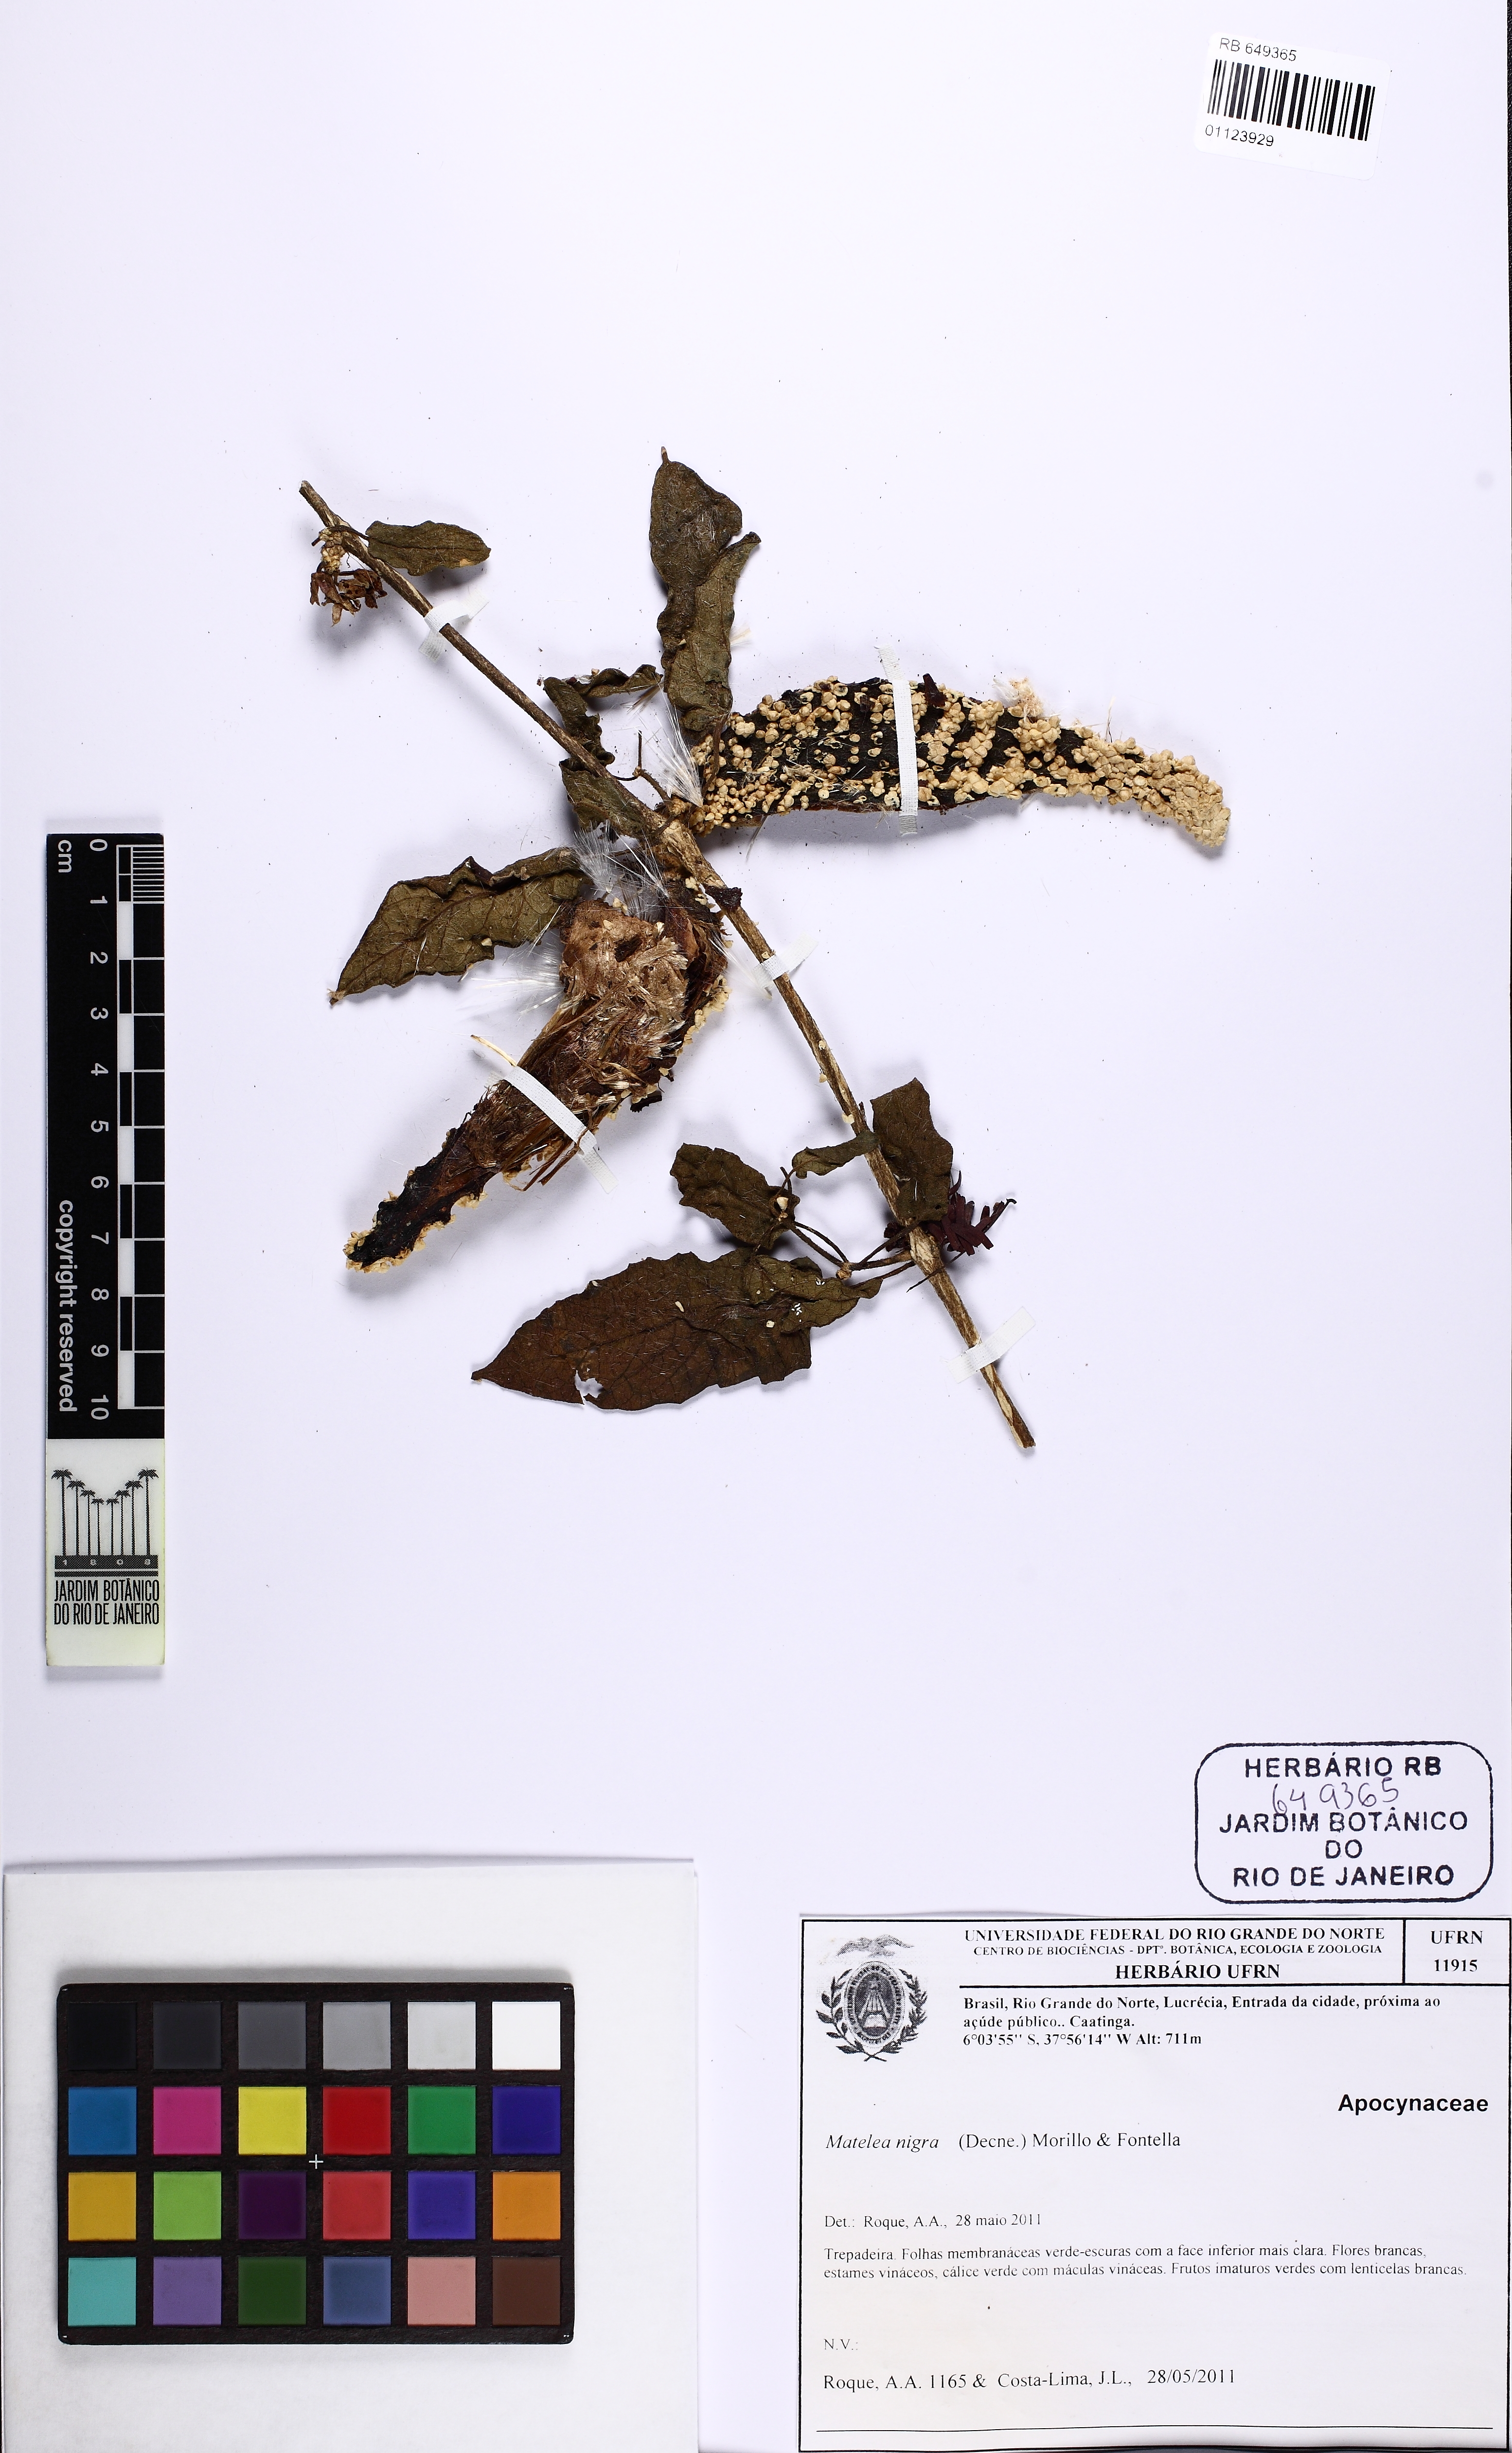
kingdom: Plantae
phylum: Tracheophyta
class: Magnoliopsida
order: Gentianales
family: Apocynaceae
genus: Ibatia
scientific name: Ibatia nigra
